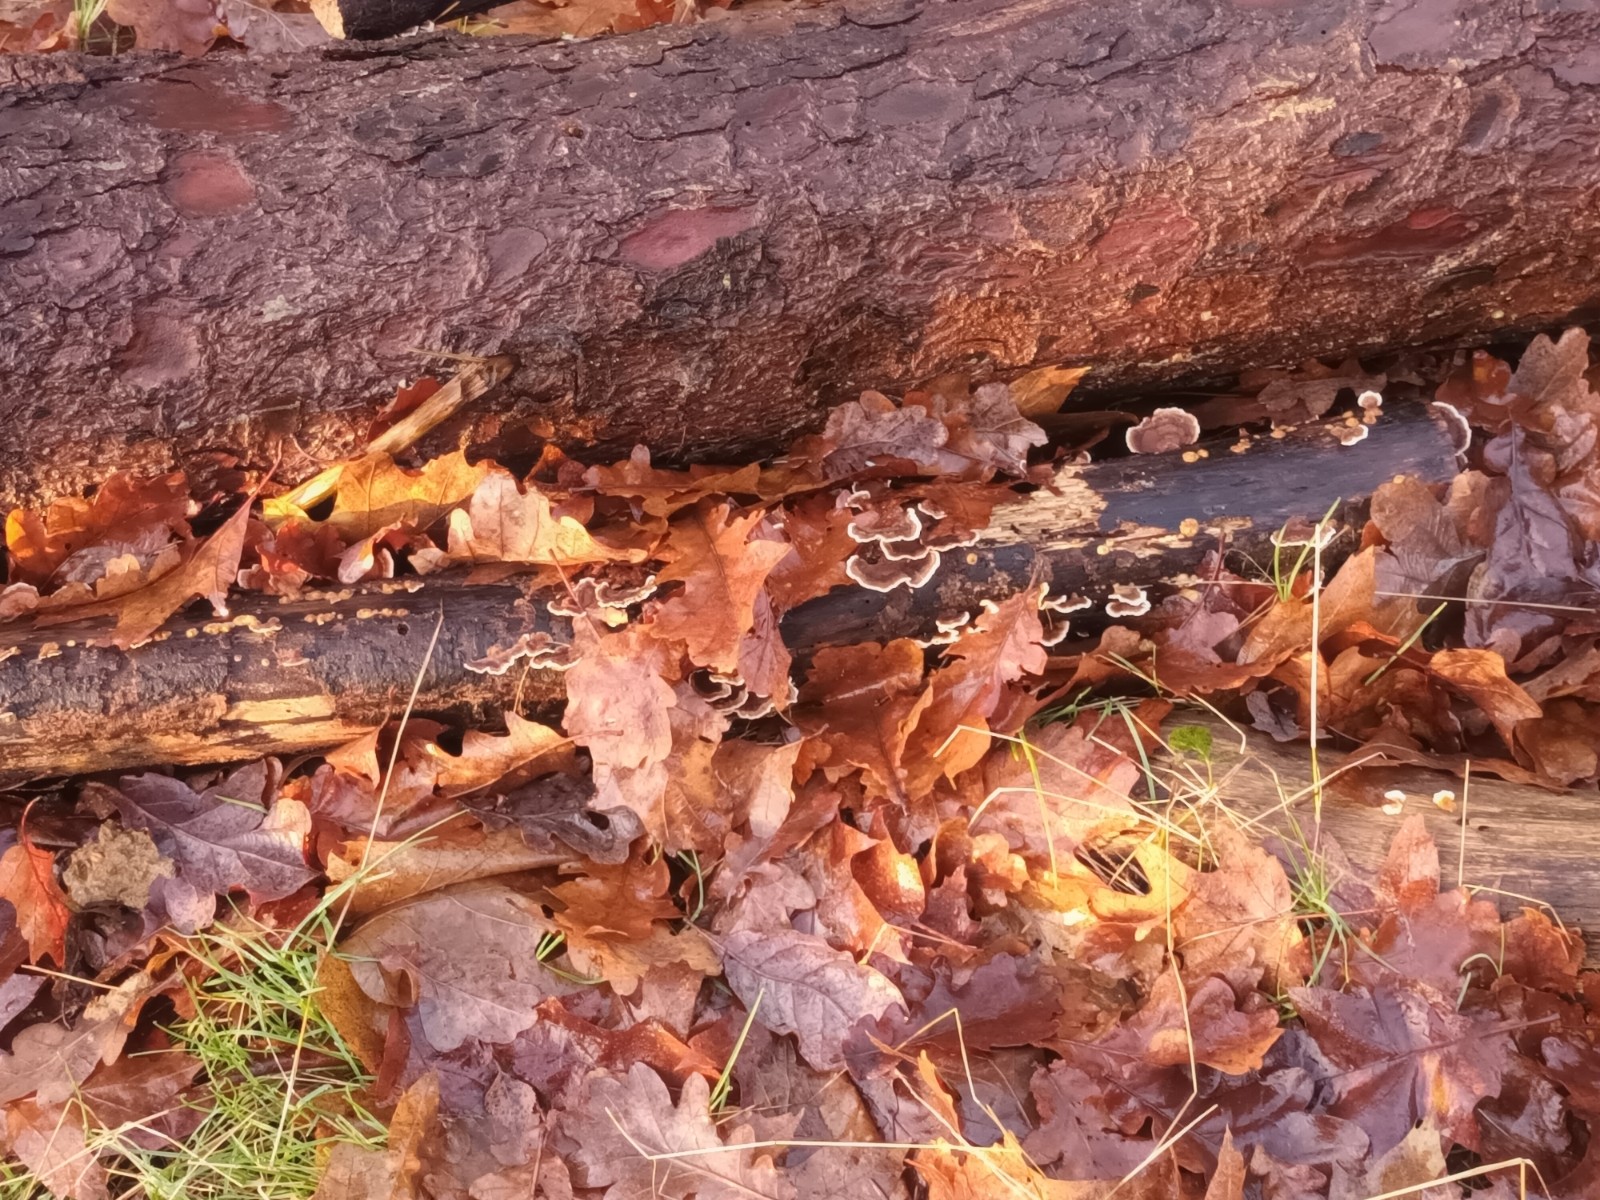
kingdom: Fungi
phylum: Basidiomycota
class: Agaricomycetes
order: Polyporales
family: Polyporaceae
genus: Trametes
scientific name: Trametes versicolor
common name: broget læderporesvamp
